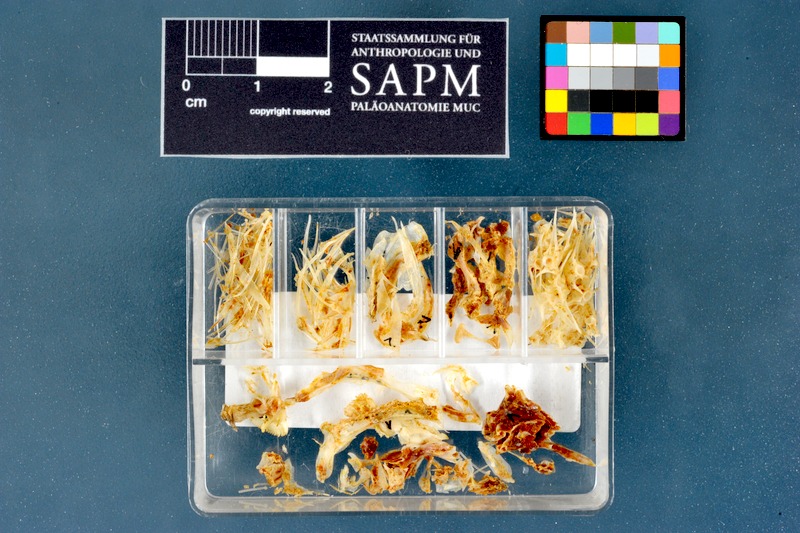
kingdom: Animalia
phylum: Chordata
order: Perciformes
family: Blenniidae
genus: Parablennius
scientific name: Parablennius gattorugine
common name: Tompot blenny
